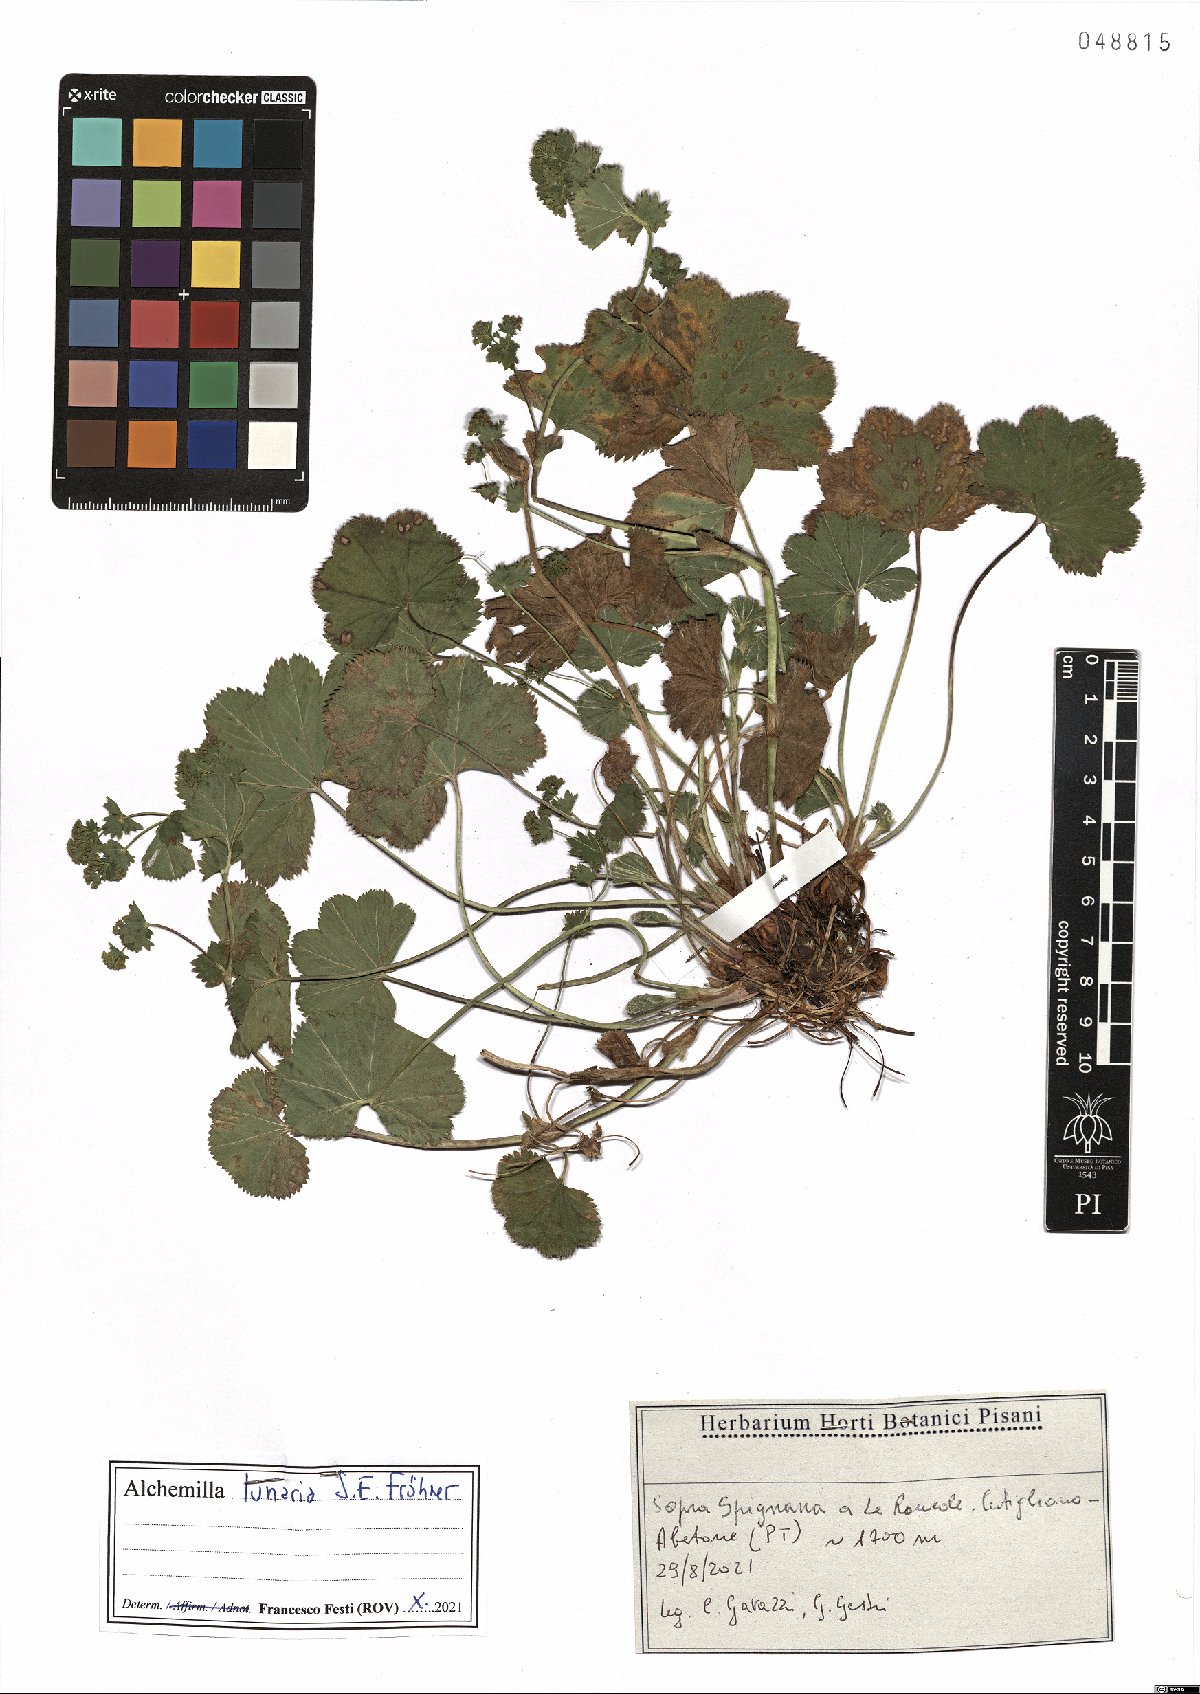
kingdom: Plantae
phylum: Tracheophyta
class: Magnoliopsida
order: Rosales
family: Rosaceae
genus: Alchemilla
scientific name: Alchemilla lunaria
